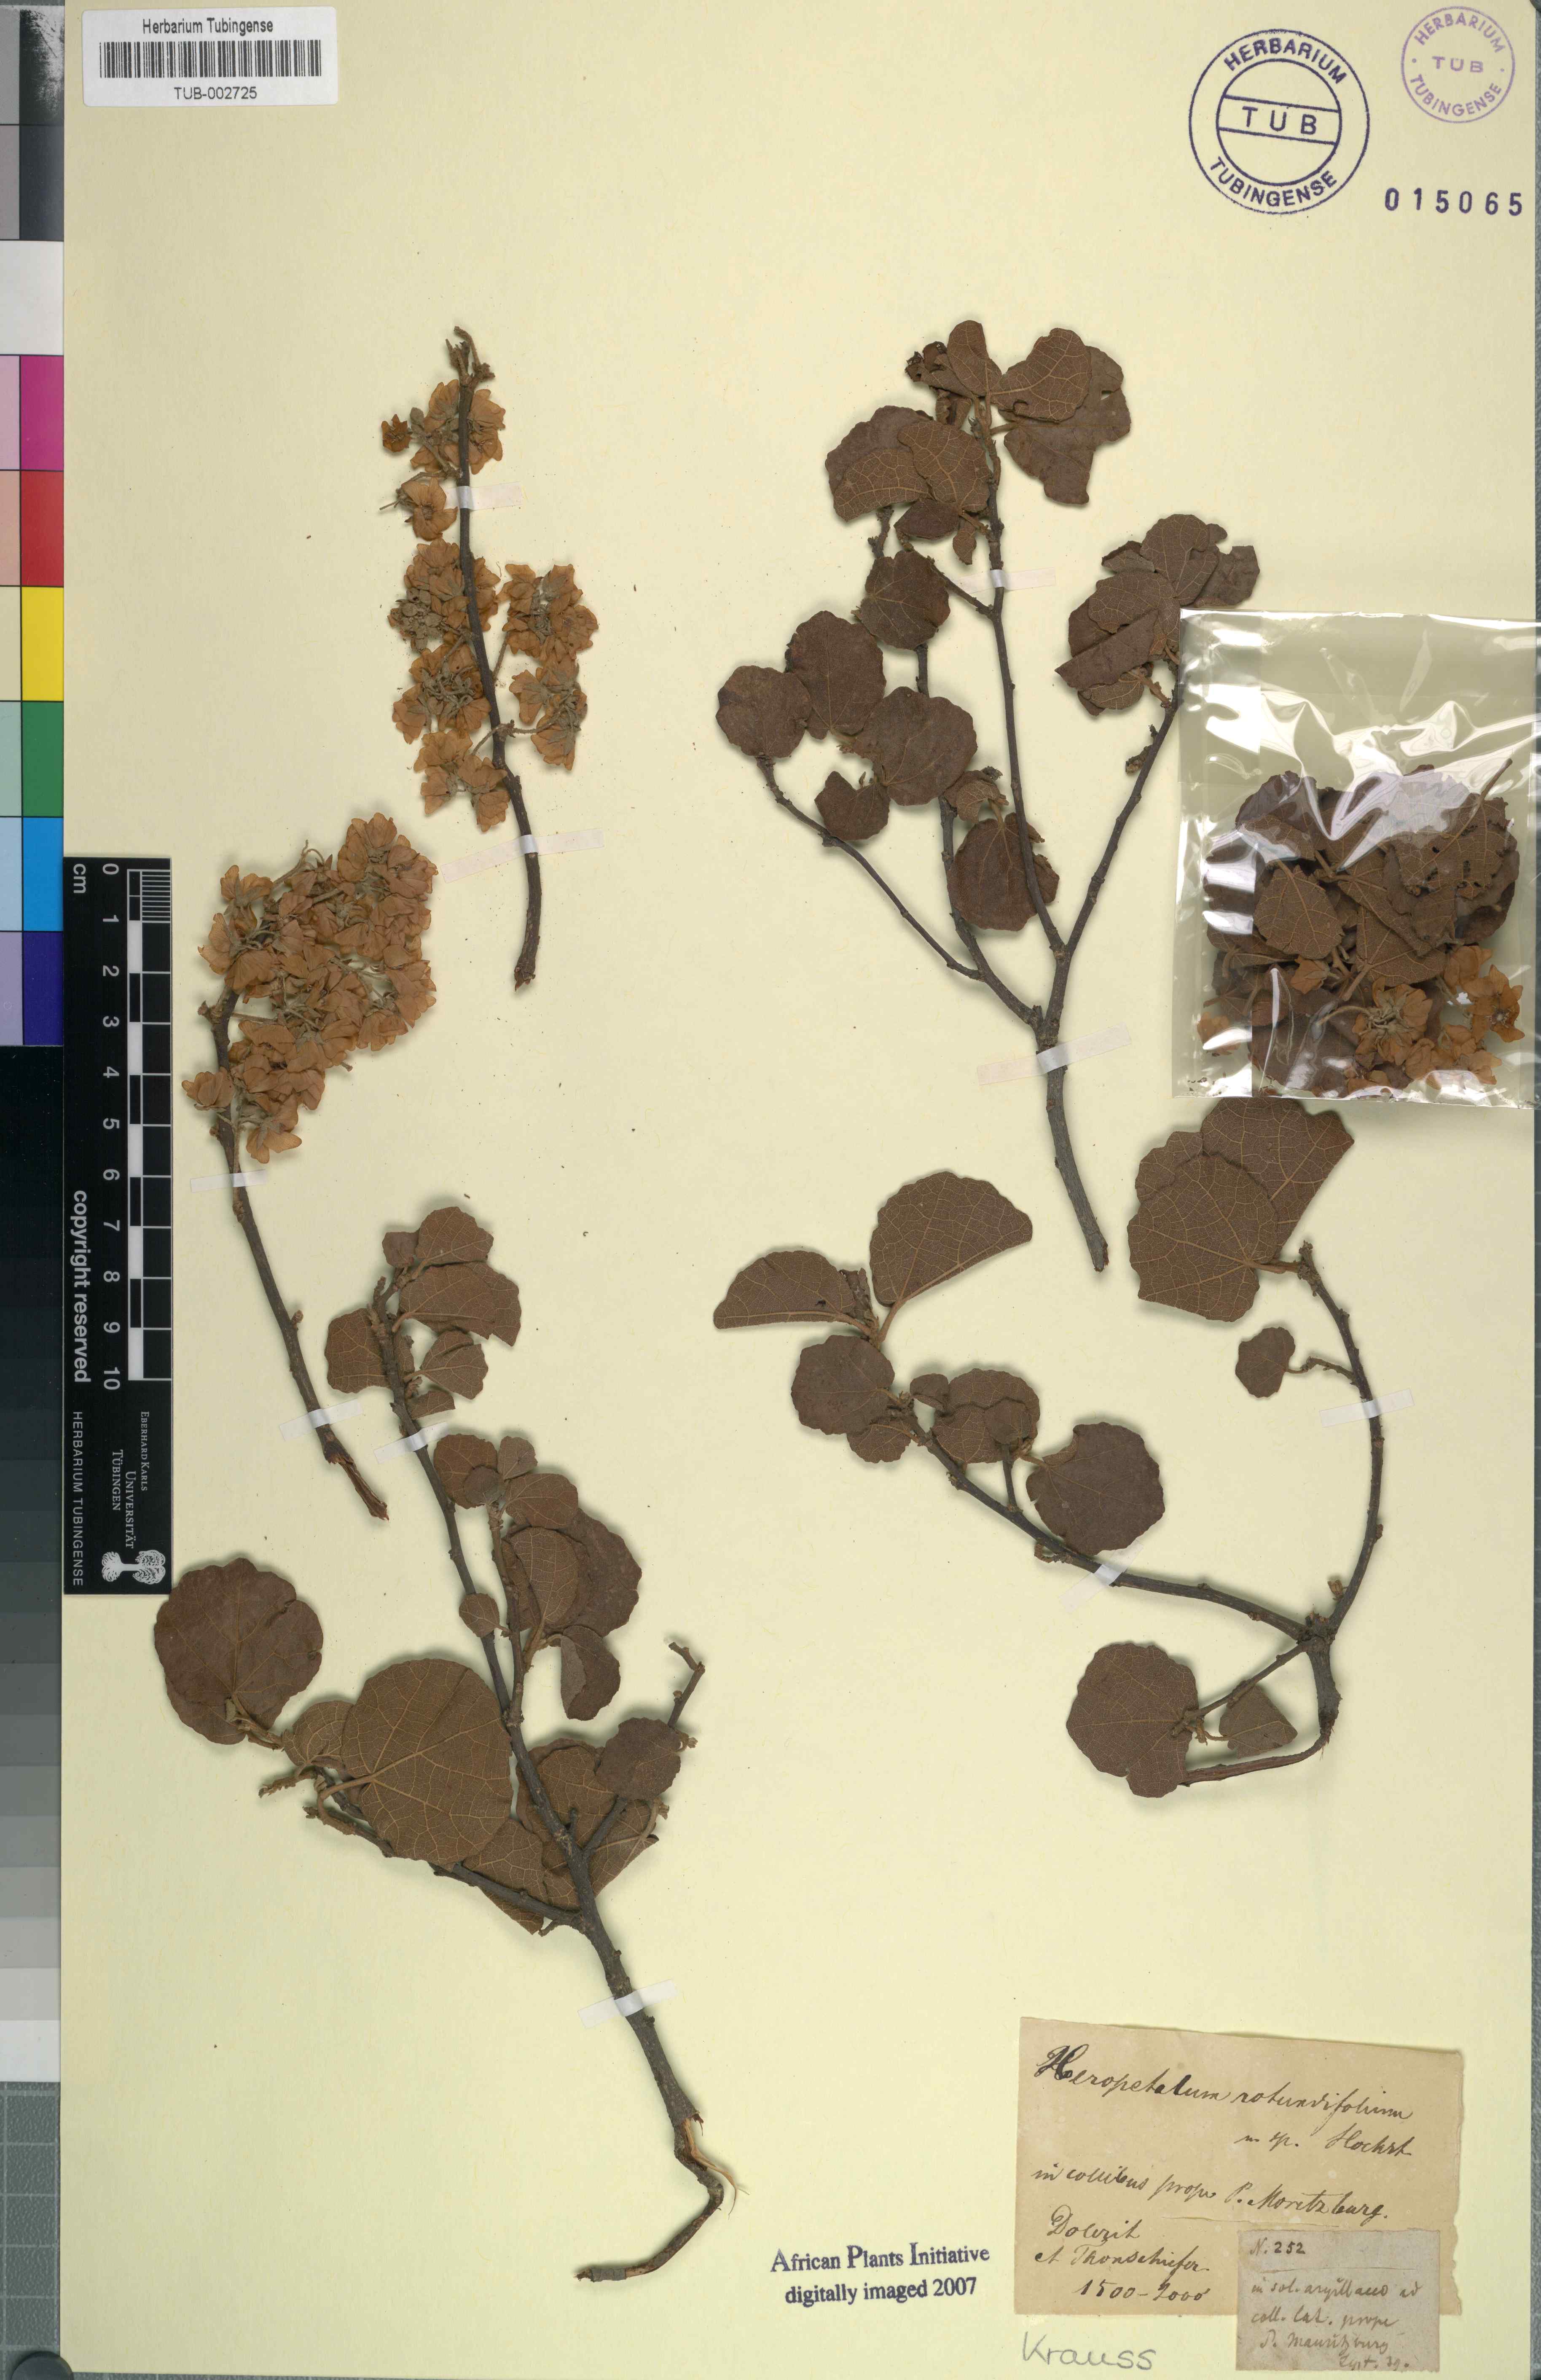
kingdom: Plantae
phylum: Tracheophyta
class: Magnoliopsida
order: Malvales
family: Malvaceae
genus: Dombeya
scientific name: Dombeya rotundifolia
